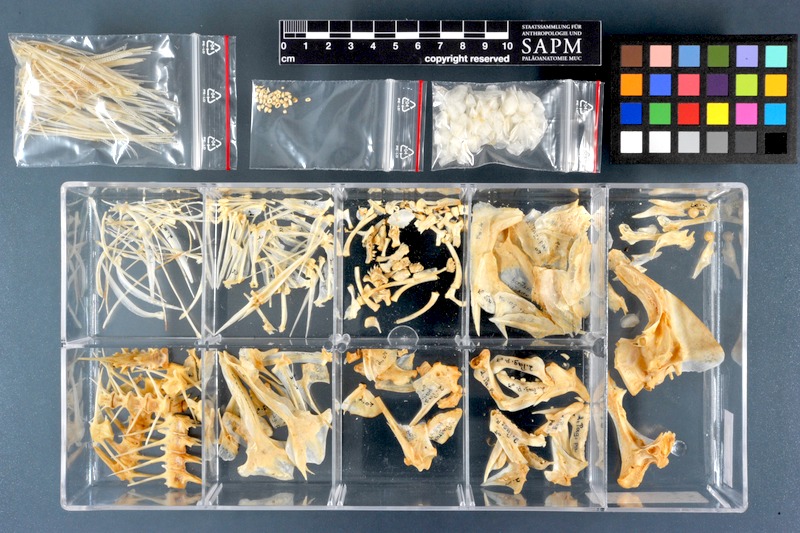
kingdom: Animalia
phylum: Chordata
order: Perciformes
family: Sparidae
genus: Pagrus
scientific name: Pagrus pagrus
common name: Red porgy
